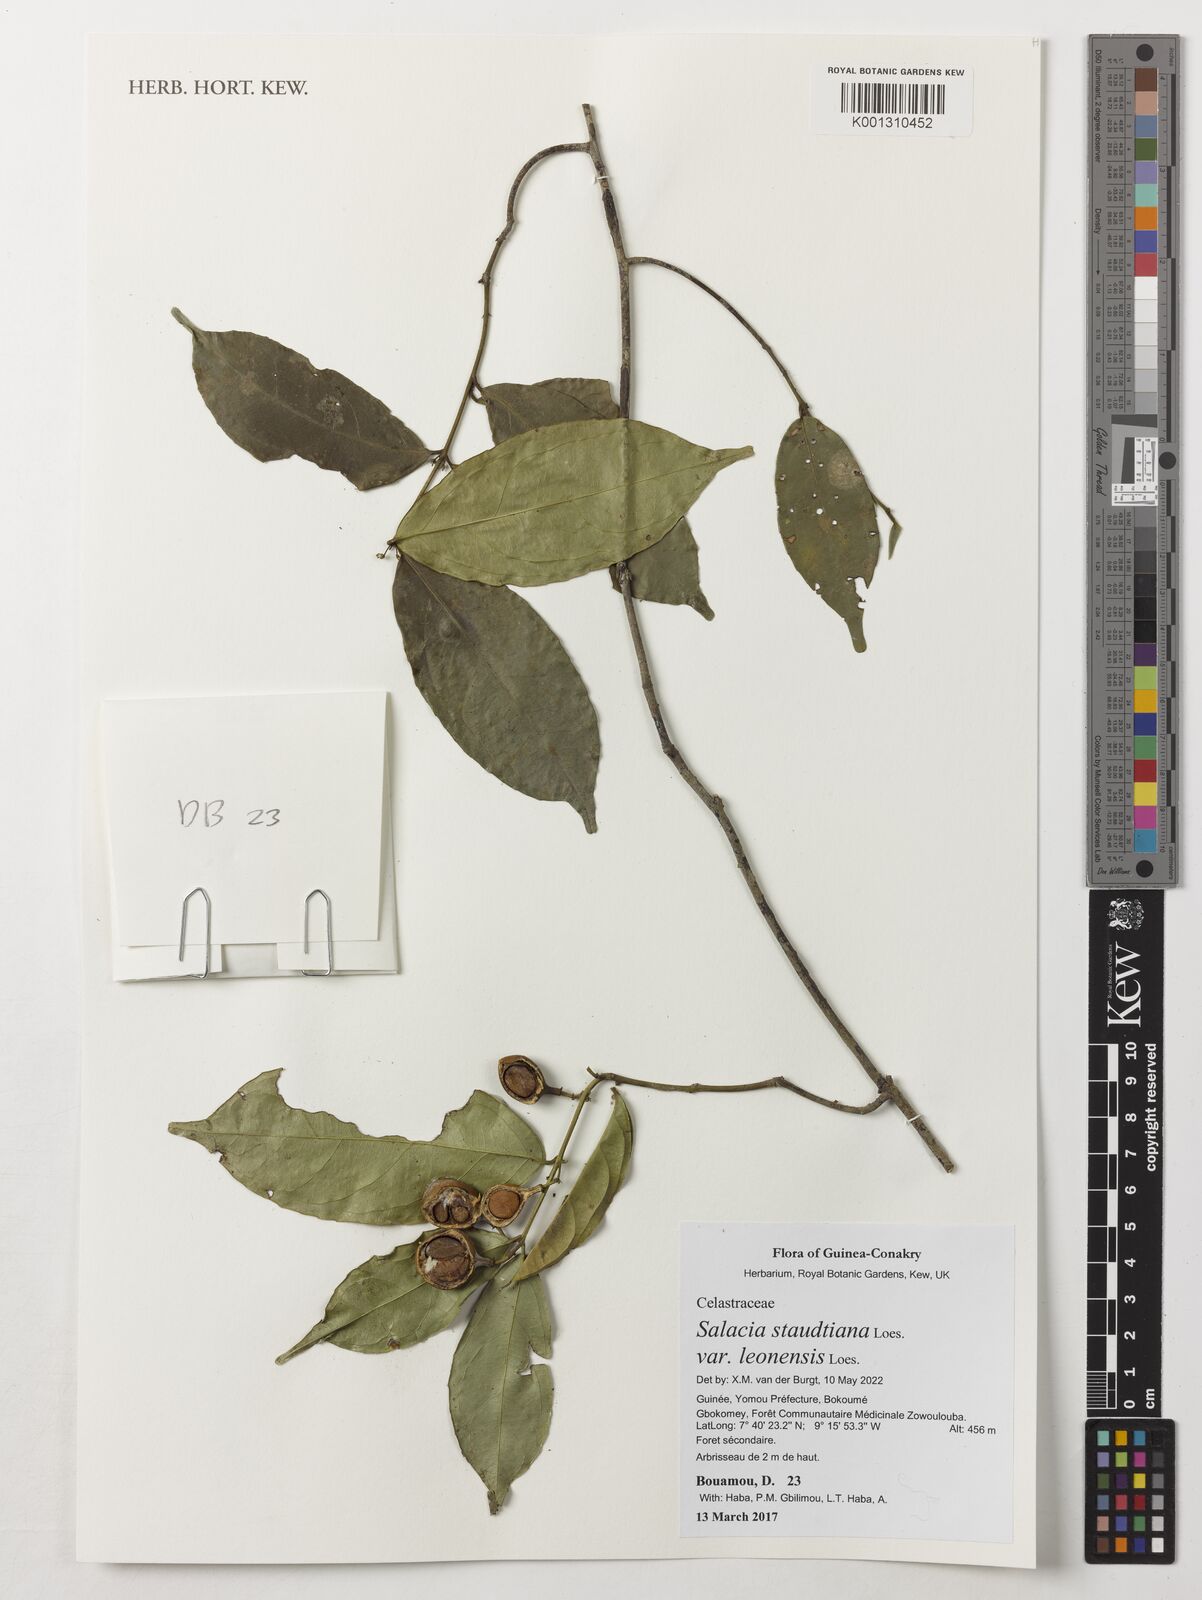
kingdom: Plantae
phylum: Tracheophyta
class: Magnoliopsida
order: Celastrales
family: Celastraceae
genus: Salacia
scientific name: Salacia staudtiana
